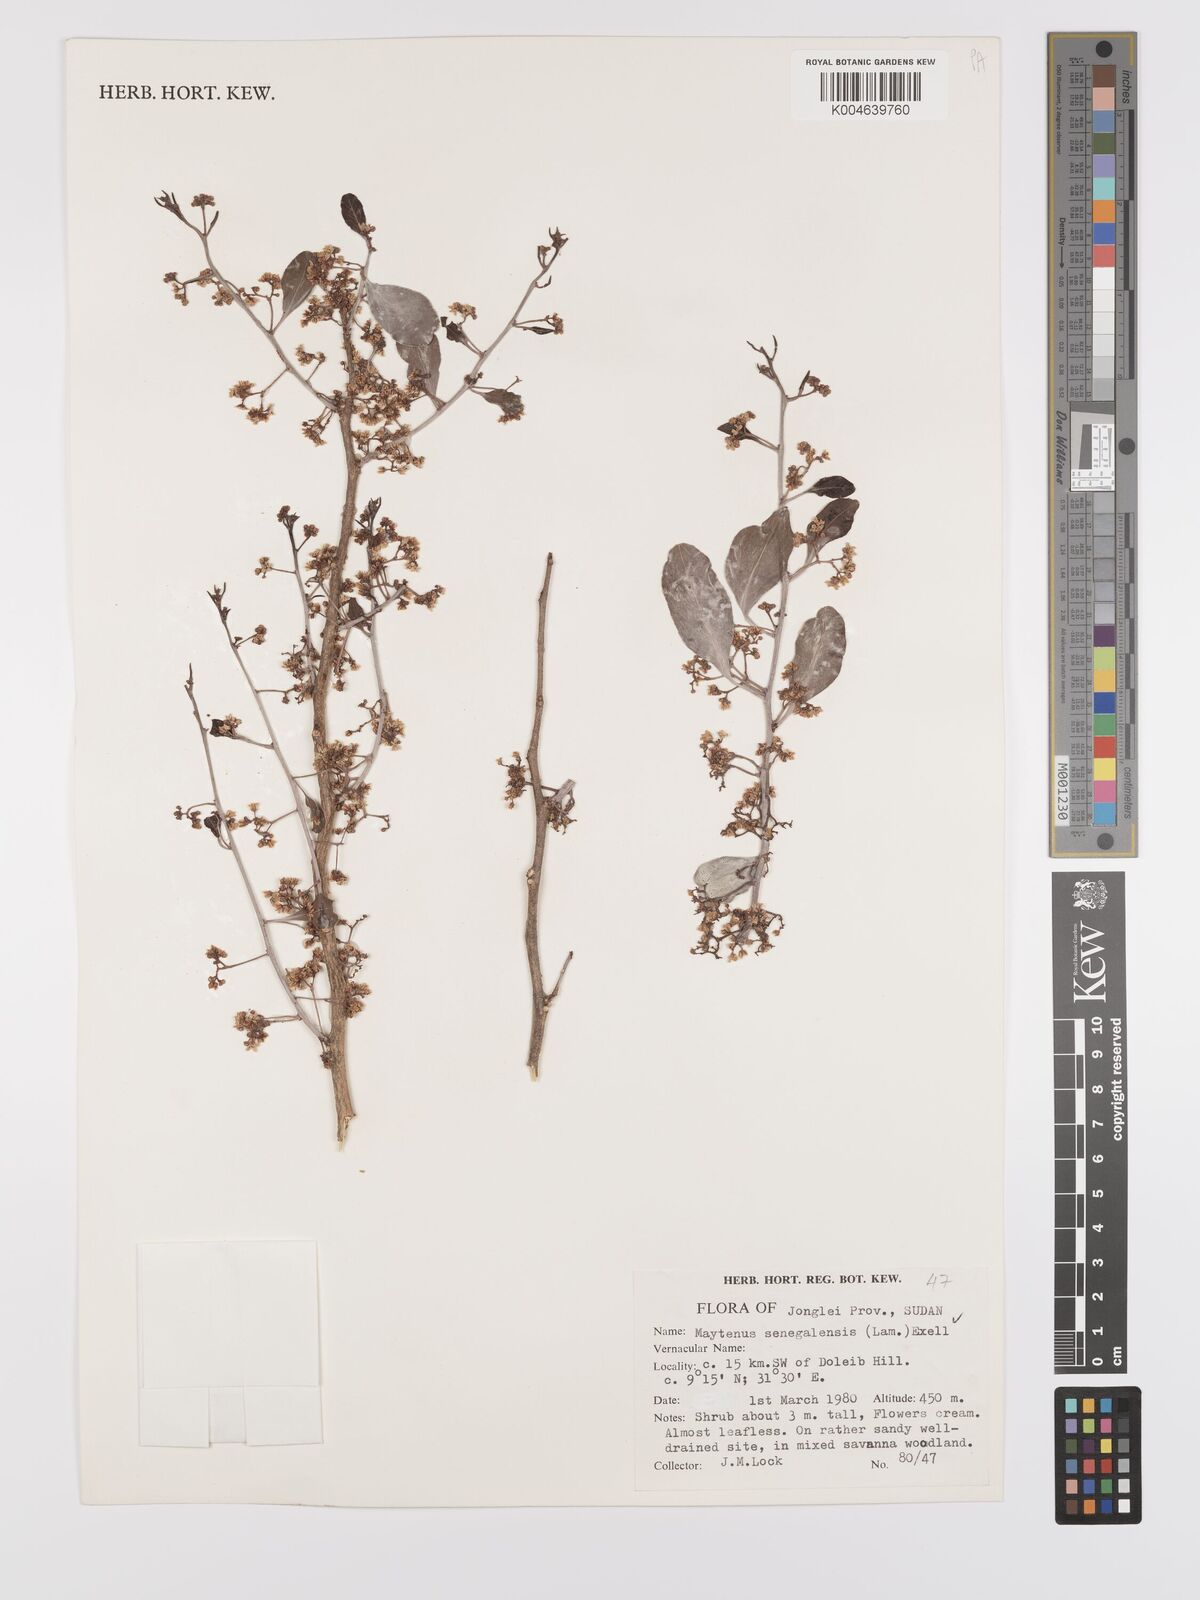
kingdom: Plantae
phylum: Tracheophyta
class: Magnoliopsida
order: Celastrales
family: Celastraceae
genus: Gymnosporia
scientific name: Gymnosporia senegalensis
